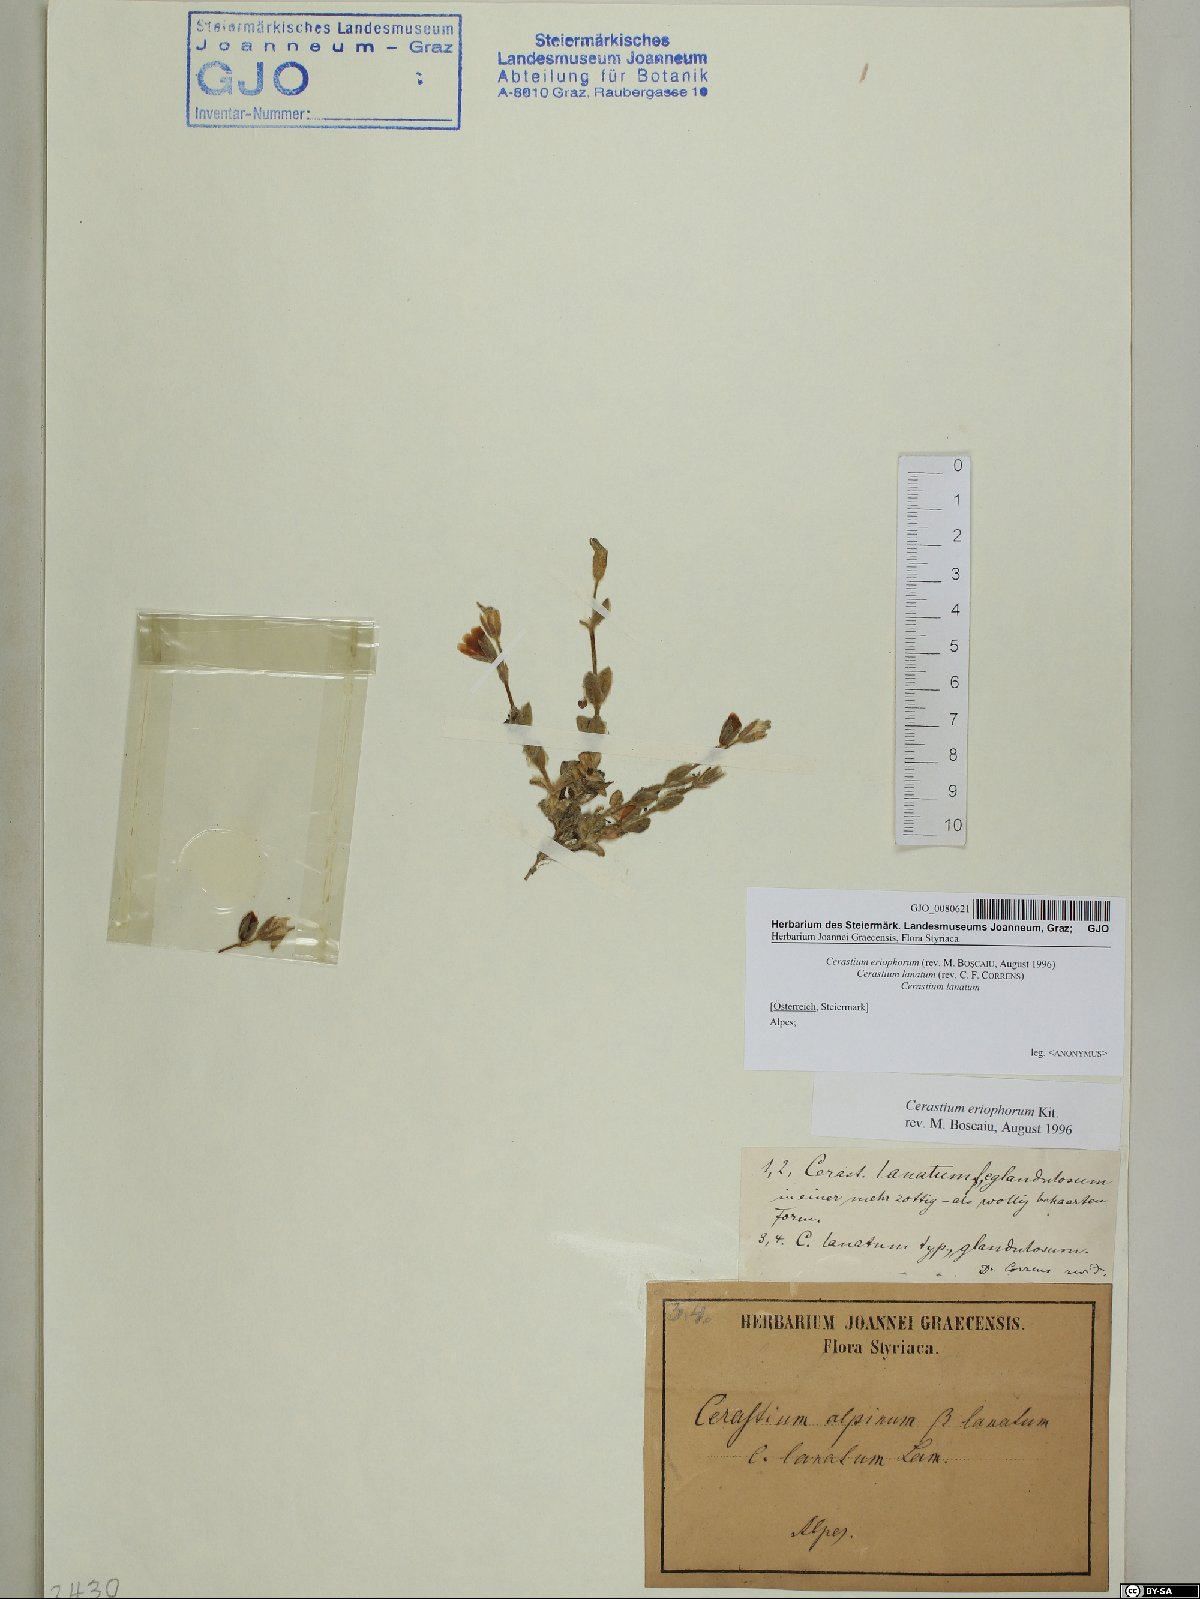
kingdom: Plantae
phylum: Tracheophyta
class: Magnoliopsida
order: Caryophyllales
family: Caryophyllaceae
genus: Cerastium
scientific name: Cerastium eriophorum
